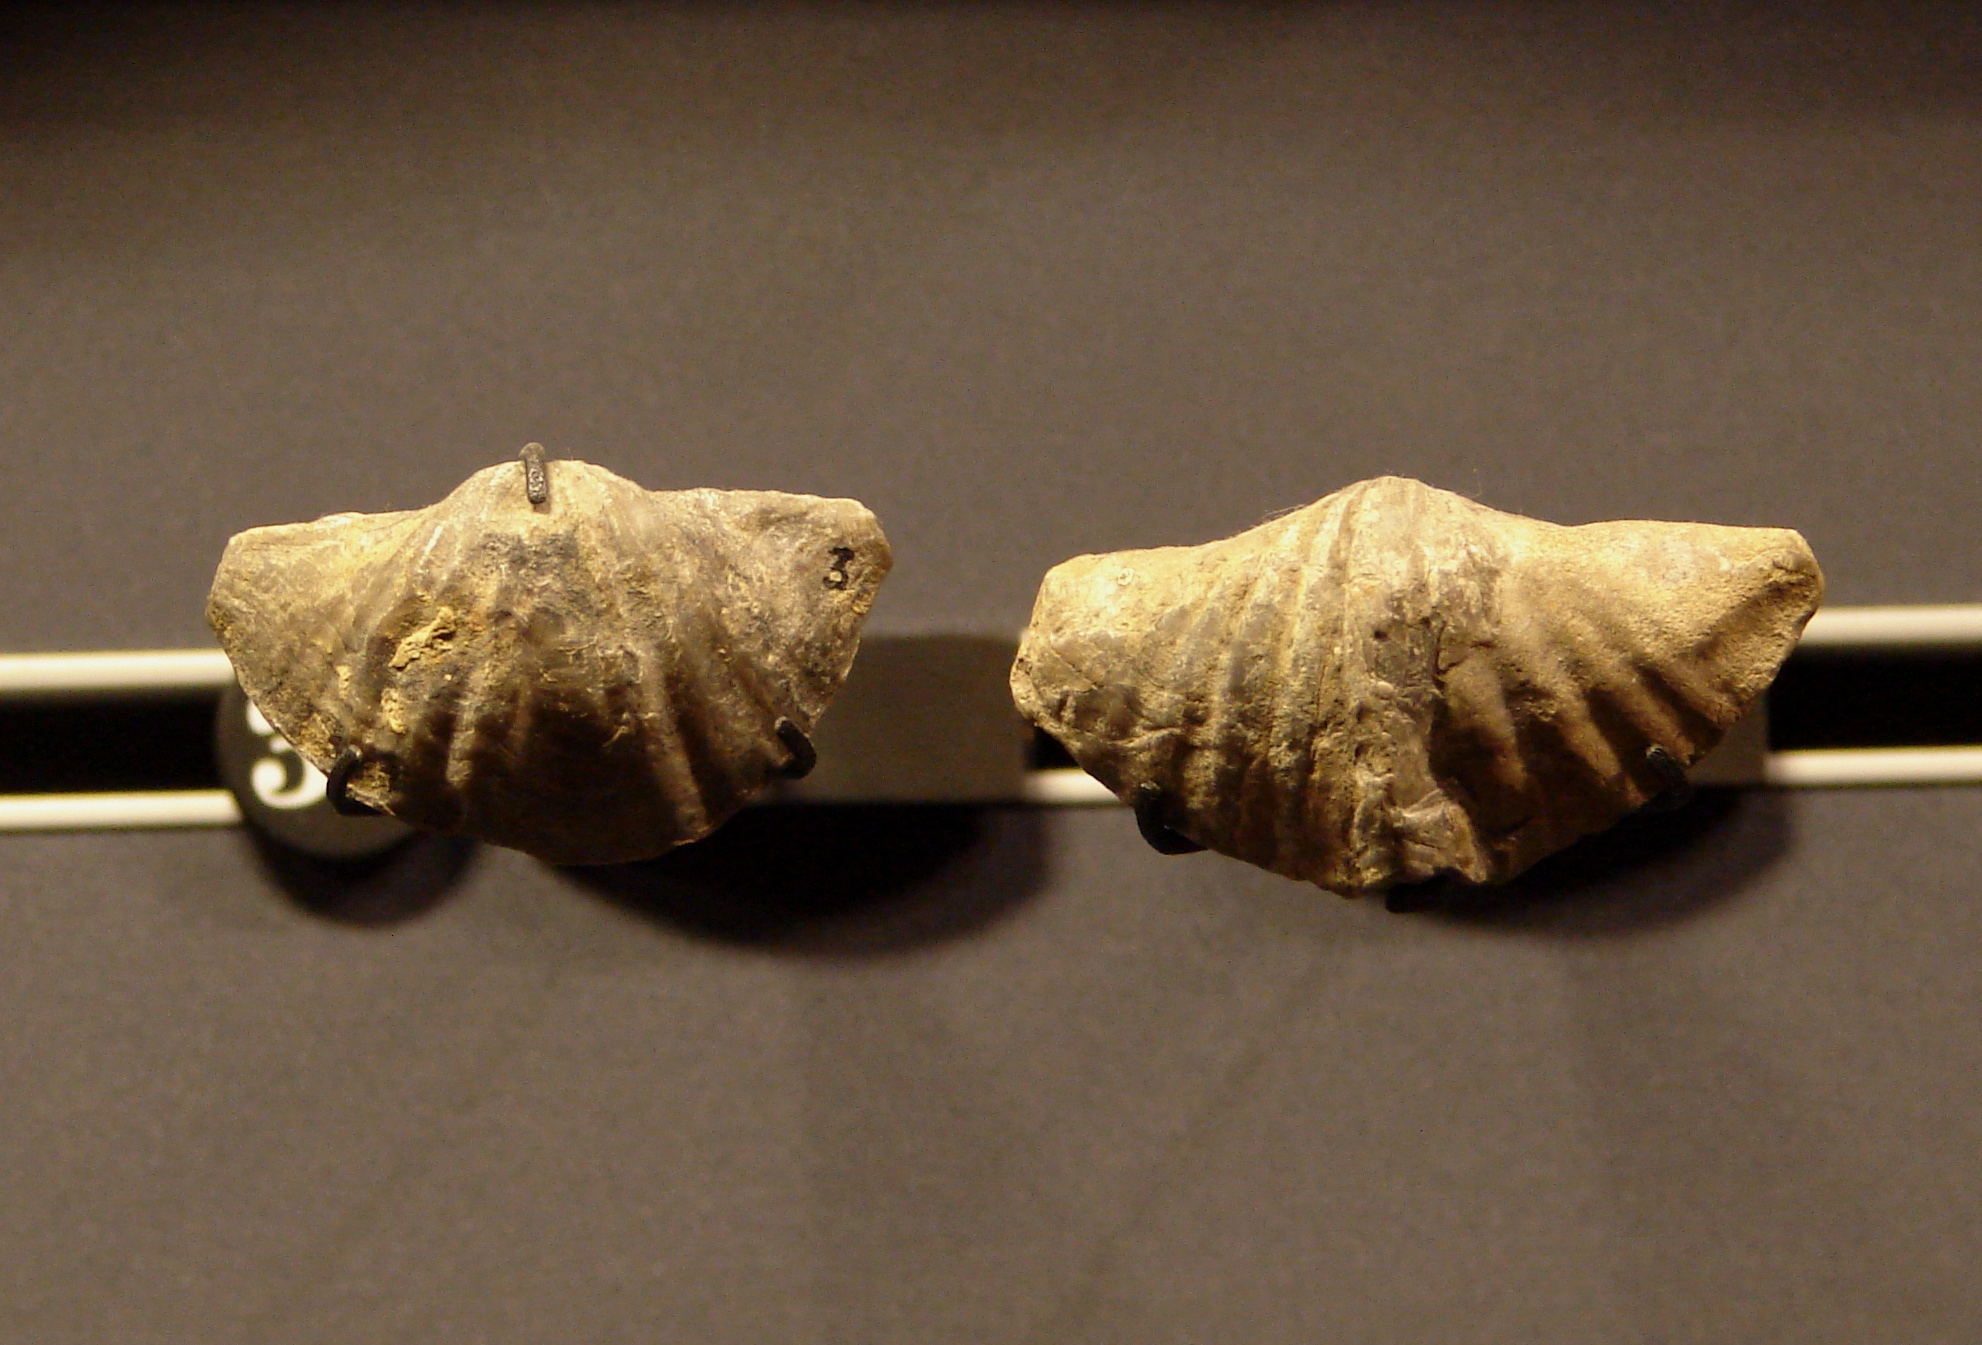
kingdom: Animalia
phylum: Brachiopoda
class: Rhynchonellata
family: Spiriferidae
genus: Spirifer
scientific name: Spirifer
